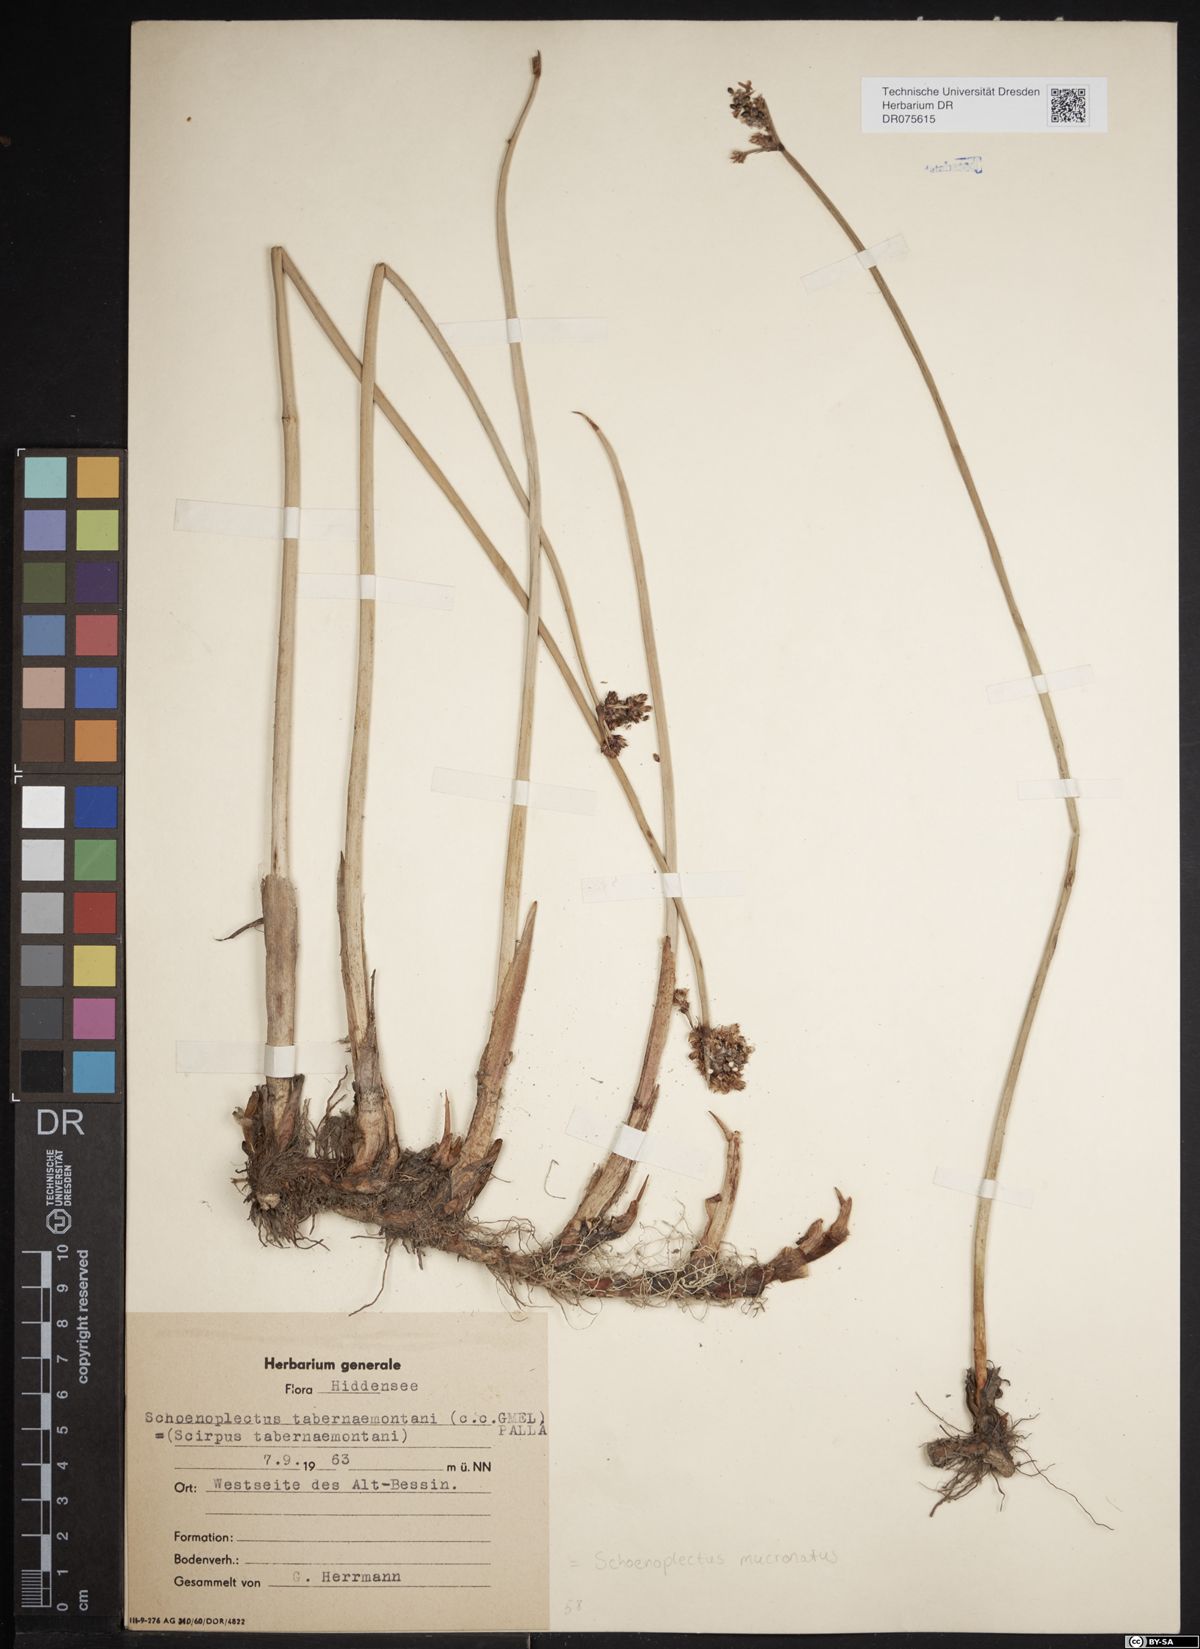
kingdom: Plantae
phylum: Tracheophyta
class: Liliopsida
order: Poales
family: Cyperaceae
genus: Schoenoplectiella
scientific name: Schoenoplectiella mucronata
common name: Bog bulrush
